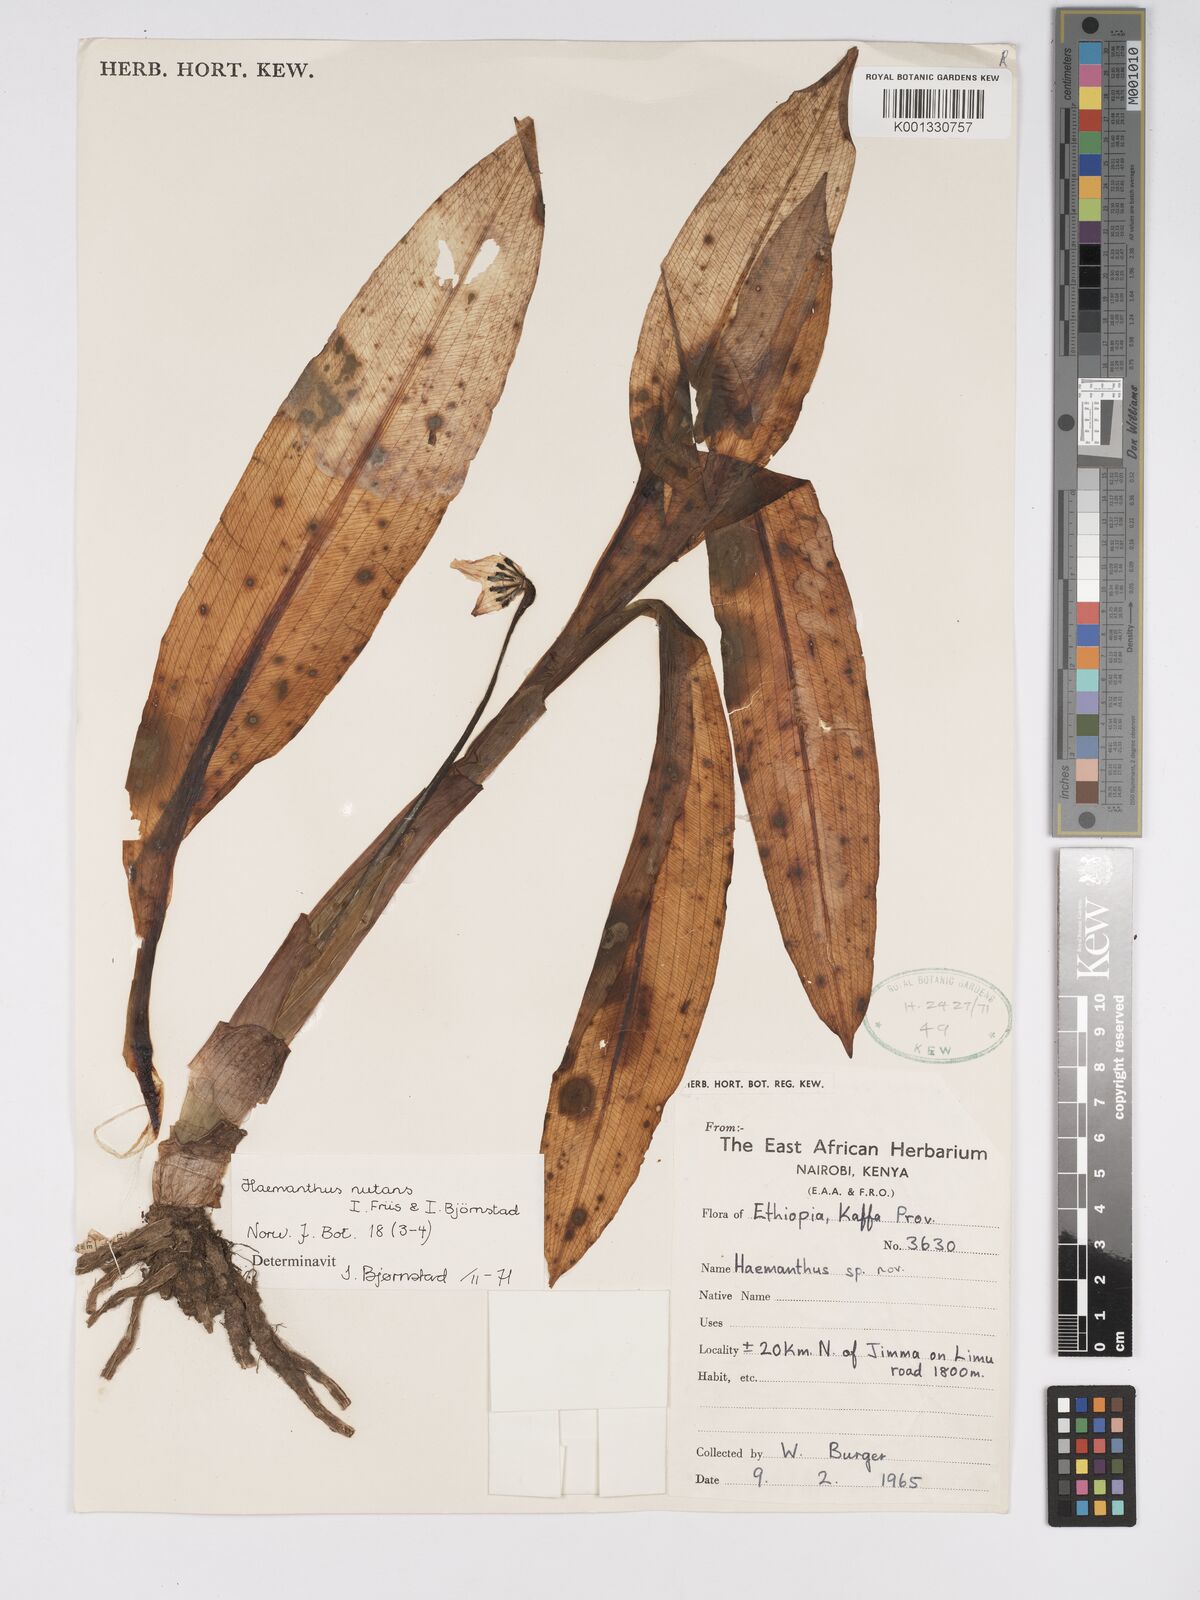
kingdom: Plantae
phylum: Tracheophyta
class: Liliopsida
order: Asparagales
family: Amaryllidaceae
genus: Scadoxus
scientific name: Scadoxus nutans
